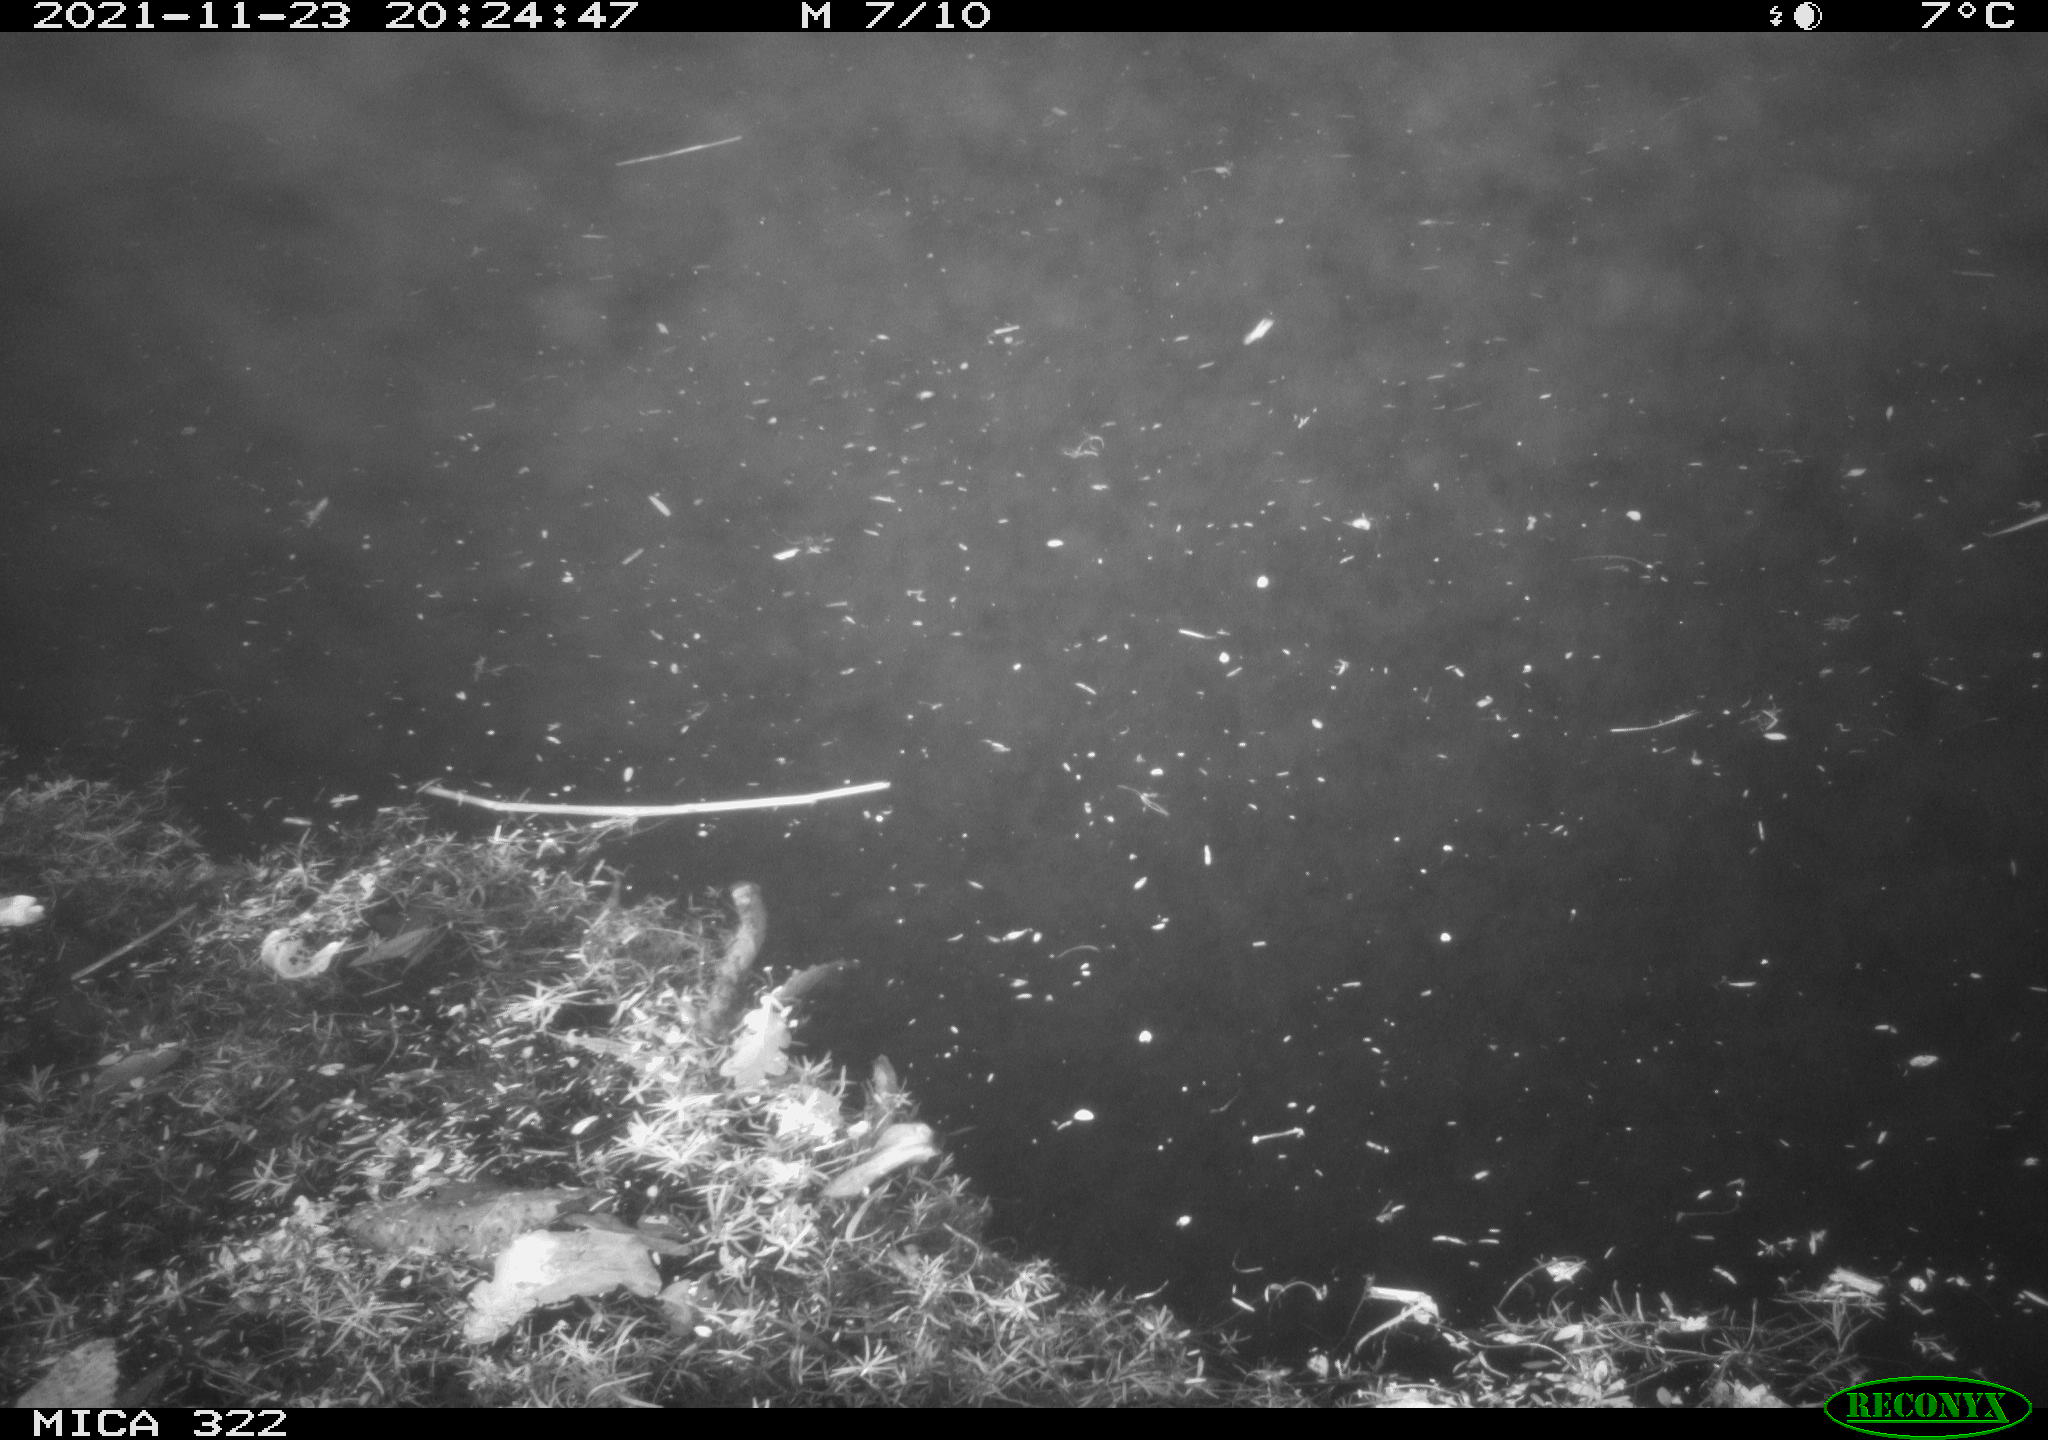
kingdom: Animalia
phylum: Chordata
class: Mammalia
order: Rodentia
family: Muridae
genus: Rattus
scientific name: Rattus norvegicus
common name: Brown rat
